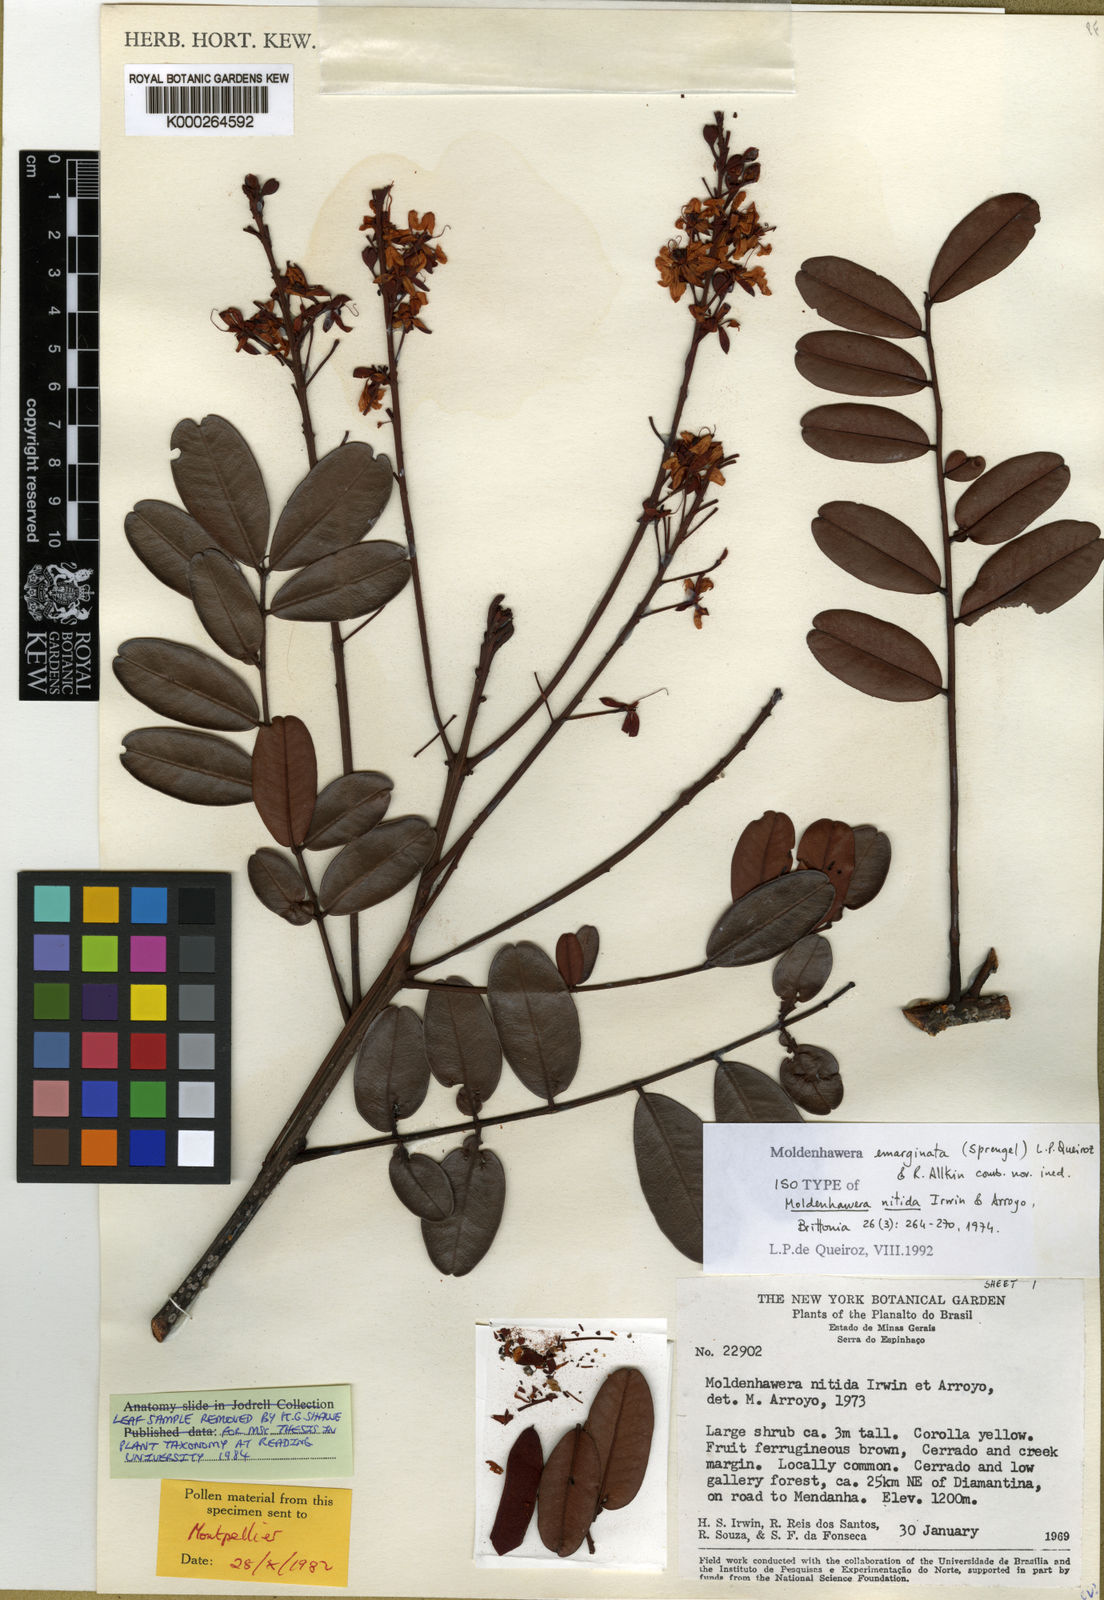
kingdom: Plantae
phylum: Tracheophyta
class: Magnoliopsida
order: Fabales
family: Fabaceae
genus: Moldenhawera
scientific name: Moldenhawera emarginata
